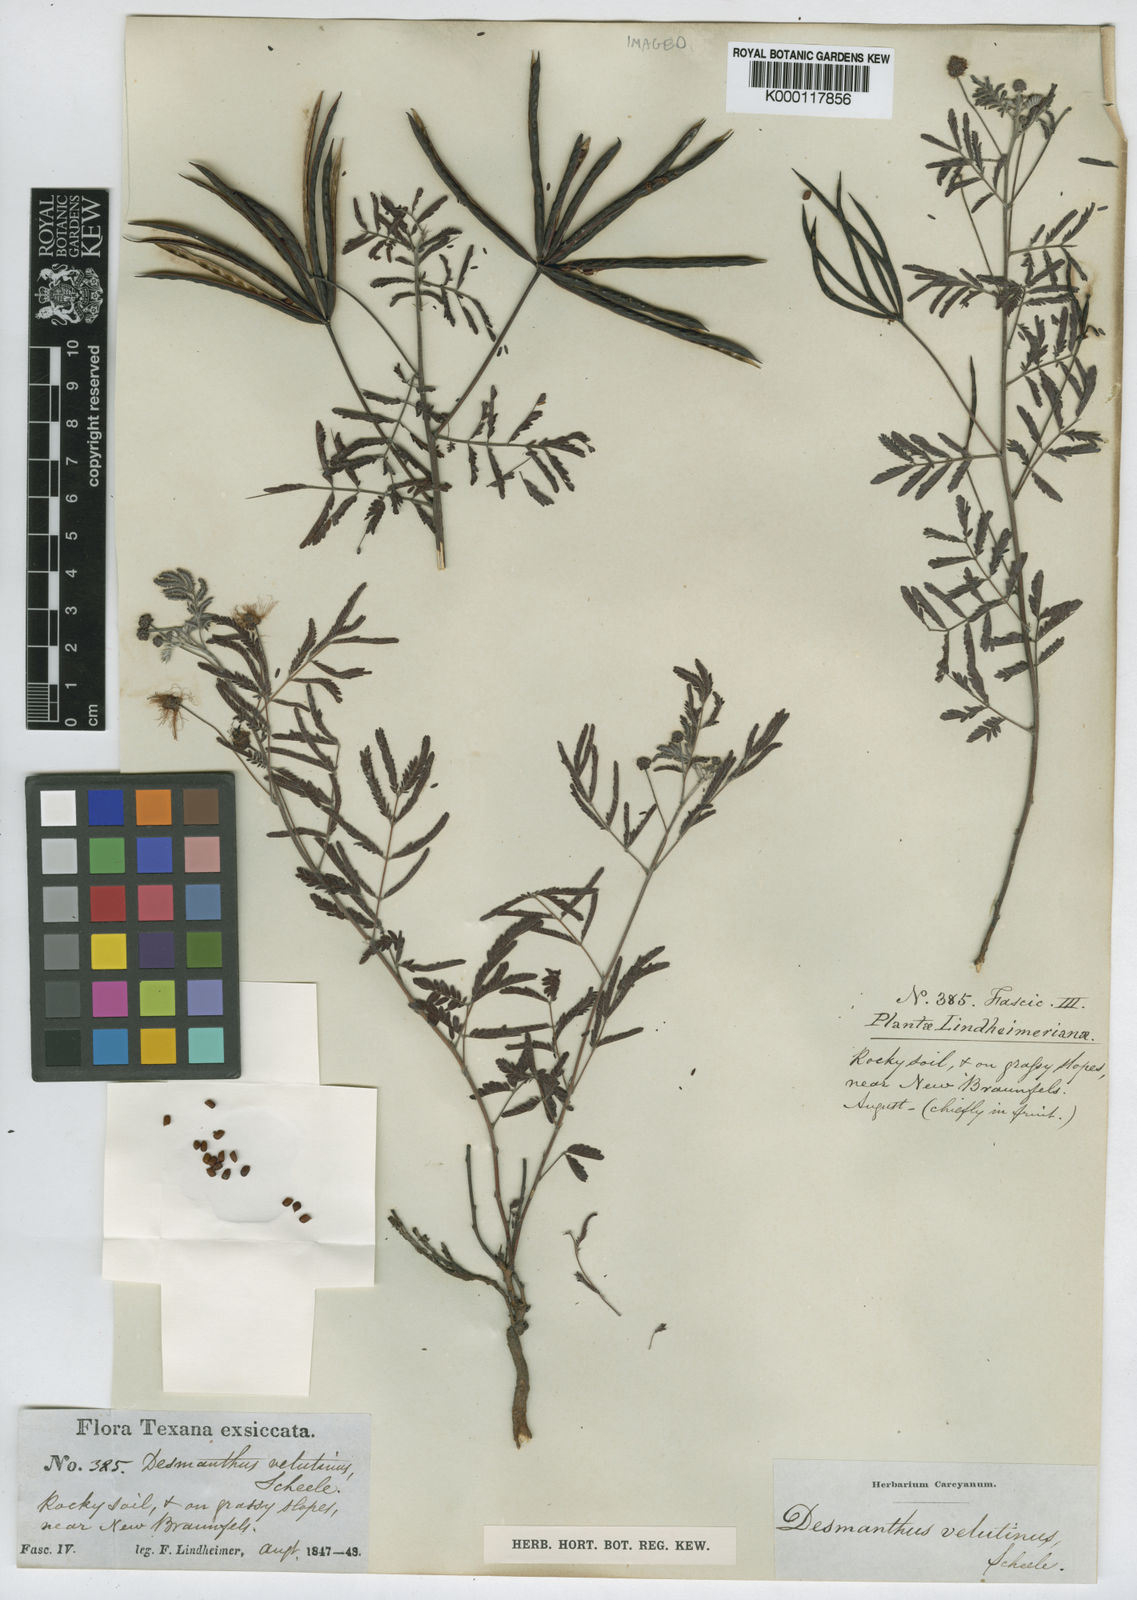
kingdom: Plantae
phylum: Tracheophyta
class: Magnoliopsida
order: Fabales
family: Fabaceae
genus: Desmanthus
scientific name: Desmanthus velutinus
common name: Velvet bundle-flower
